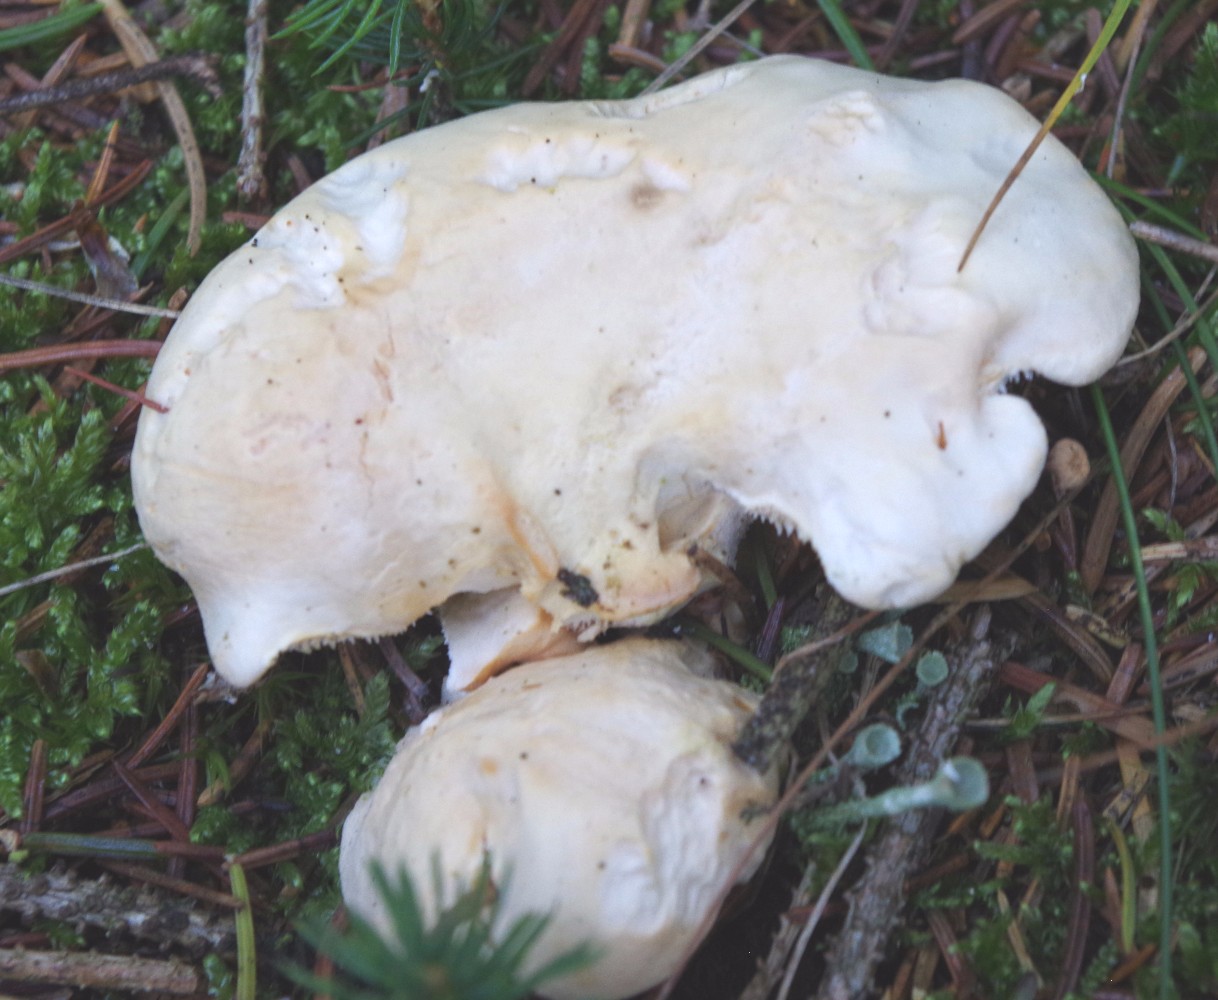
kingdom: Fungi
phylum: Basidiomycota
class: Agaricomycetes
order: Cantharellales
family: Hydnaceae
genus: Hydnum
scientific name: Hydnum repandum
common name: almindelig pigsvamp
